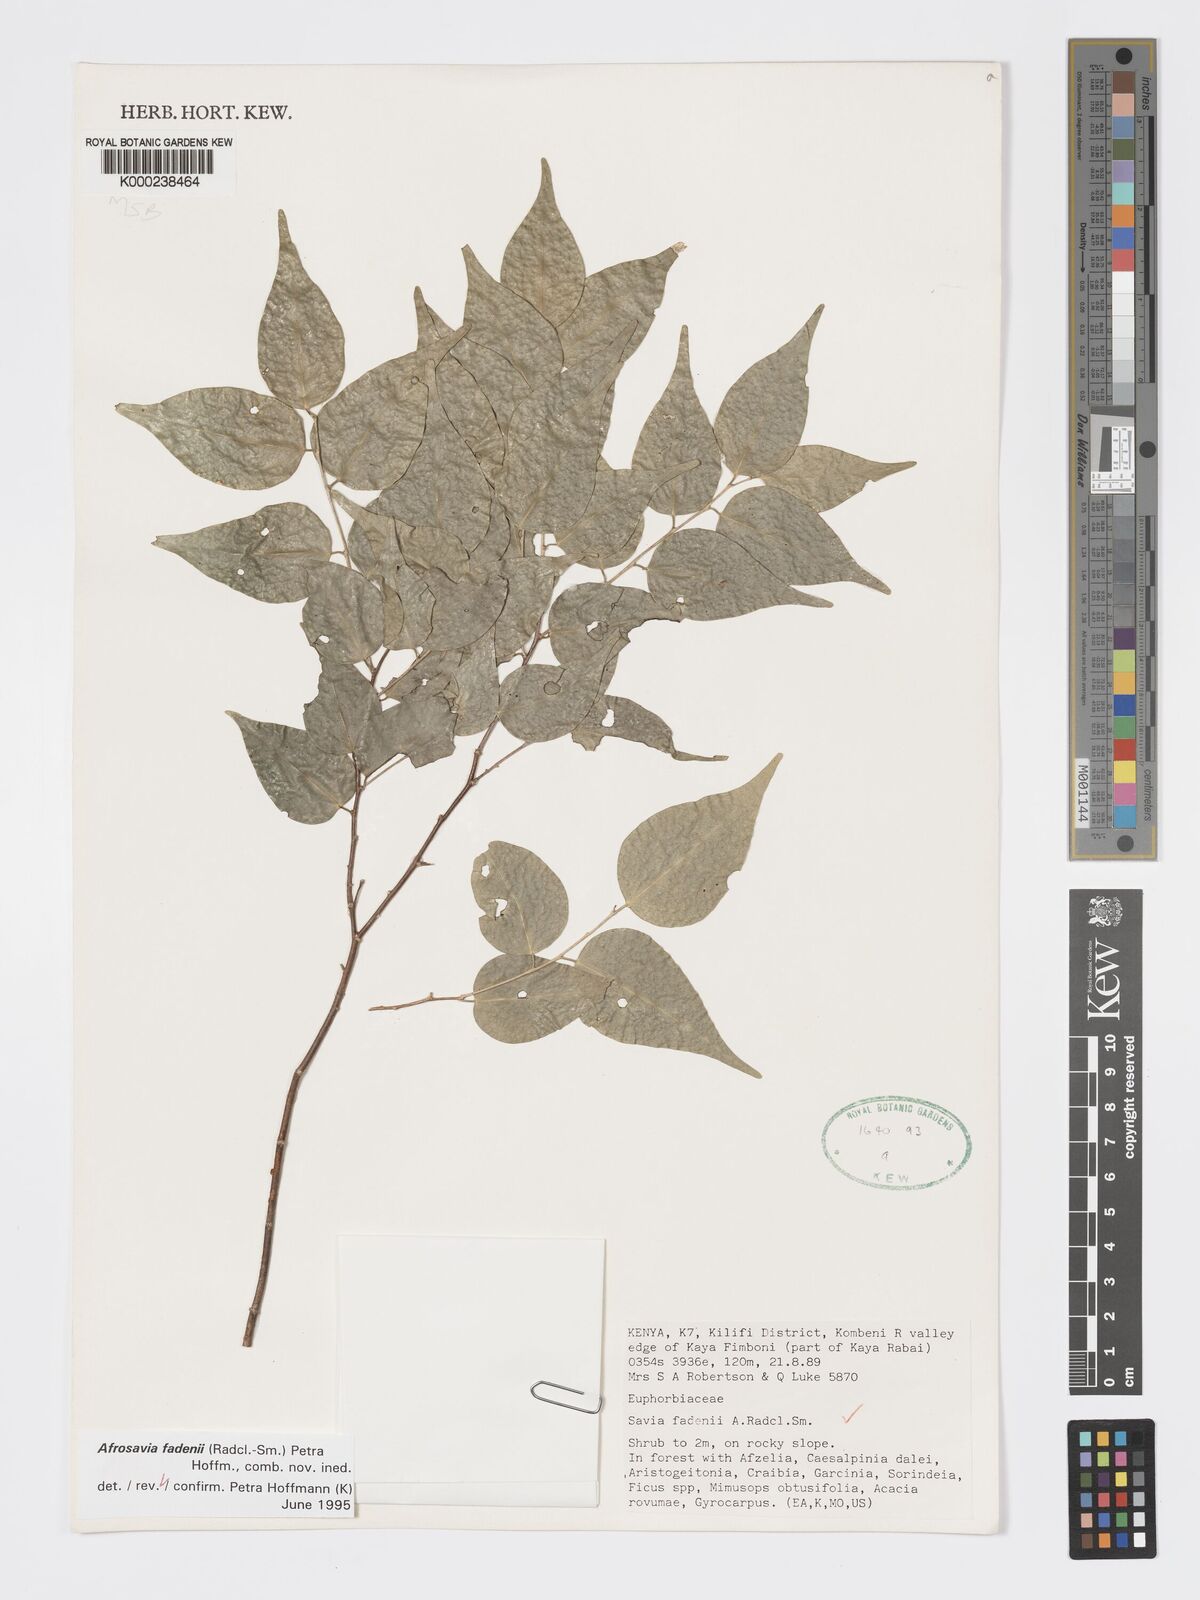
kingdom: Plantae
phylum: Tracheophyta
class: Magnoliopsida
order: Malpighiales
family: Phyllanthaceae
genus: Wielandia
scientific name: Wielandia fadenii
